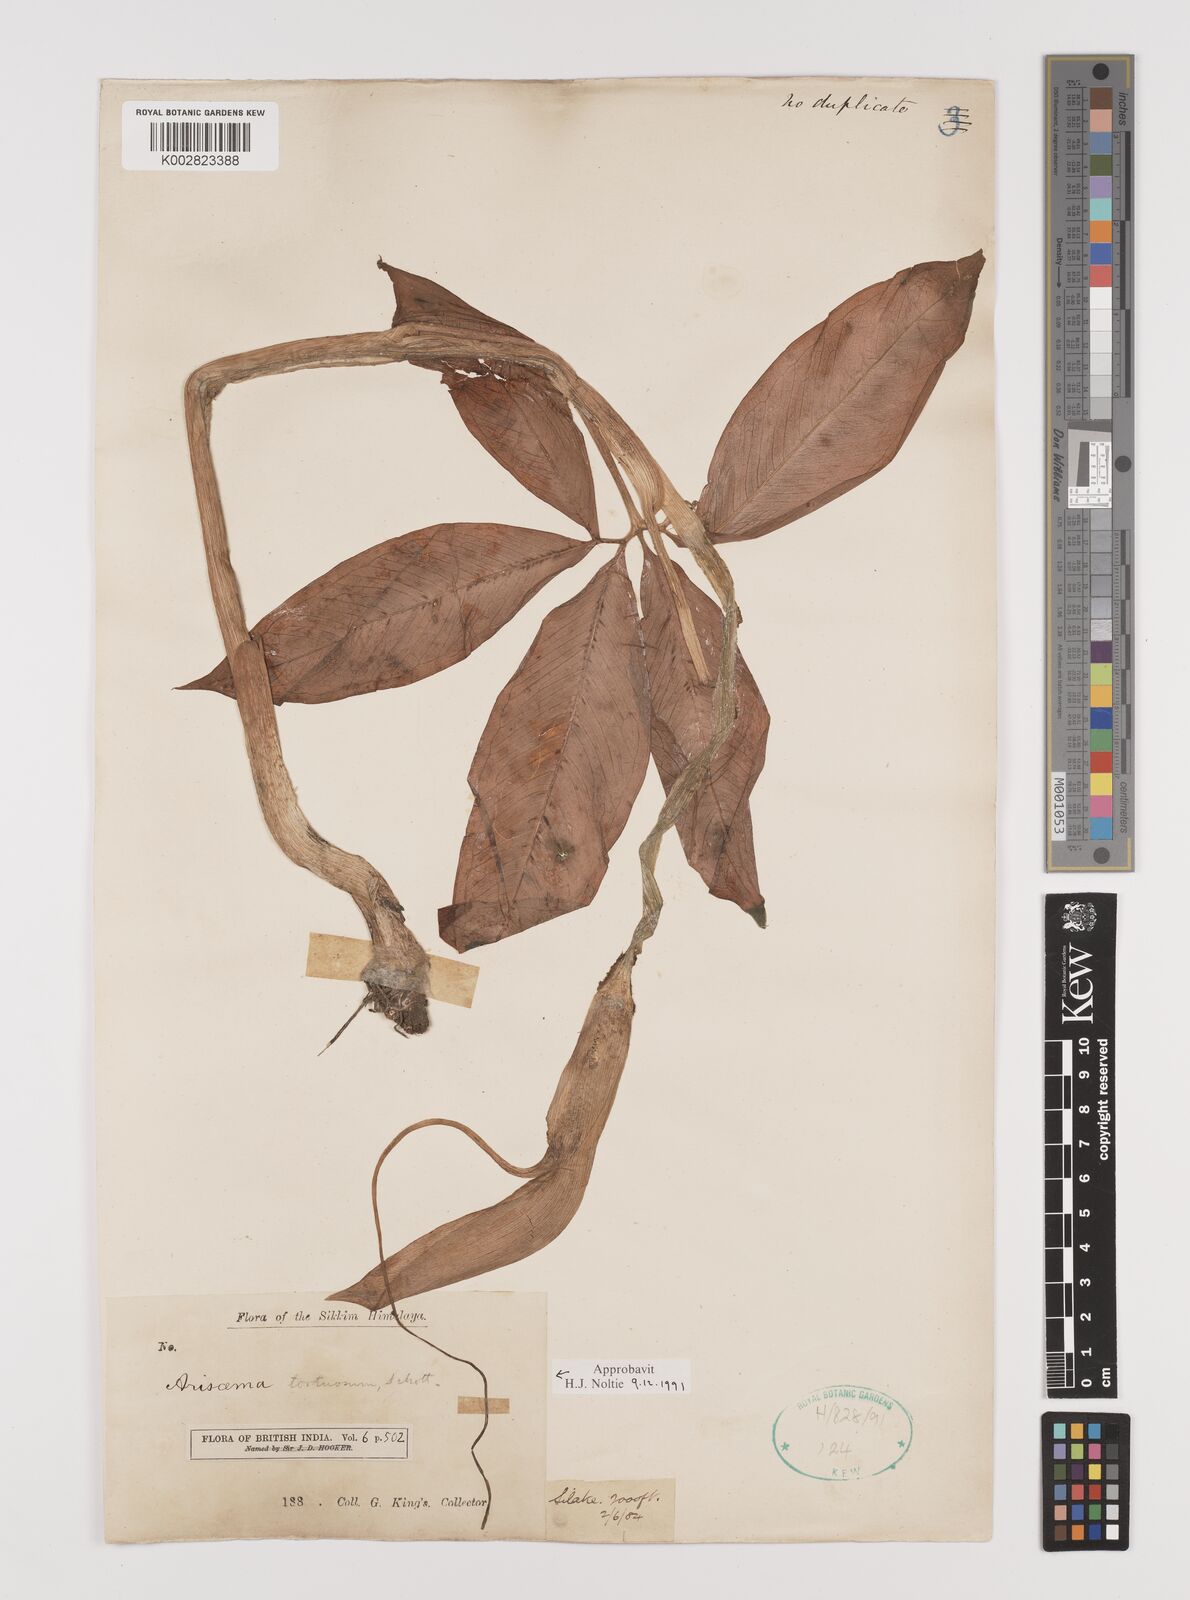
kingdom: Plantae
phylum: Tracheophyta
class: Liliopsida
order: Alismatales
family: Araceae
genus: Arisaema
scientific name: Arisaema tortuosum
